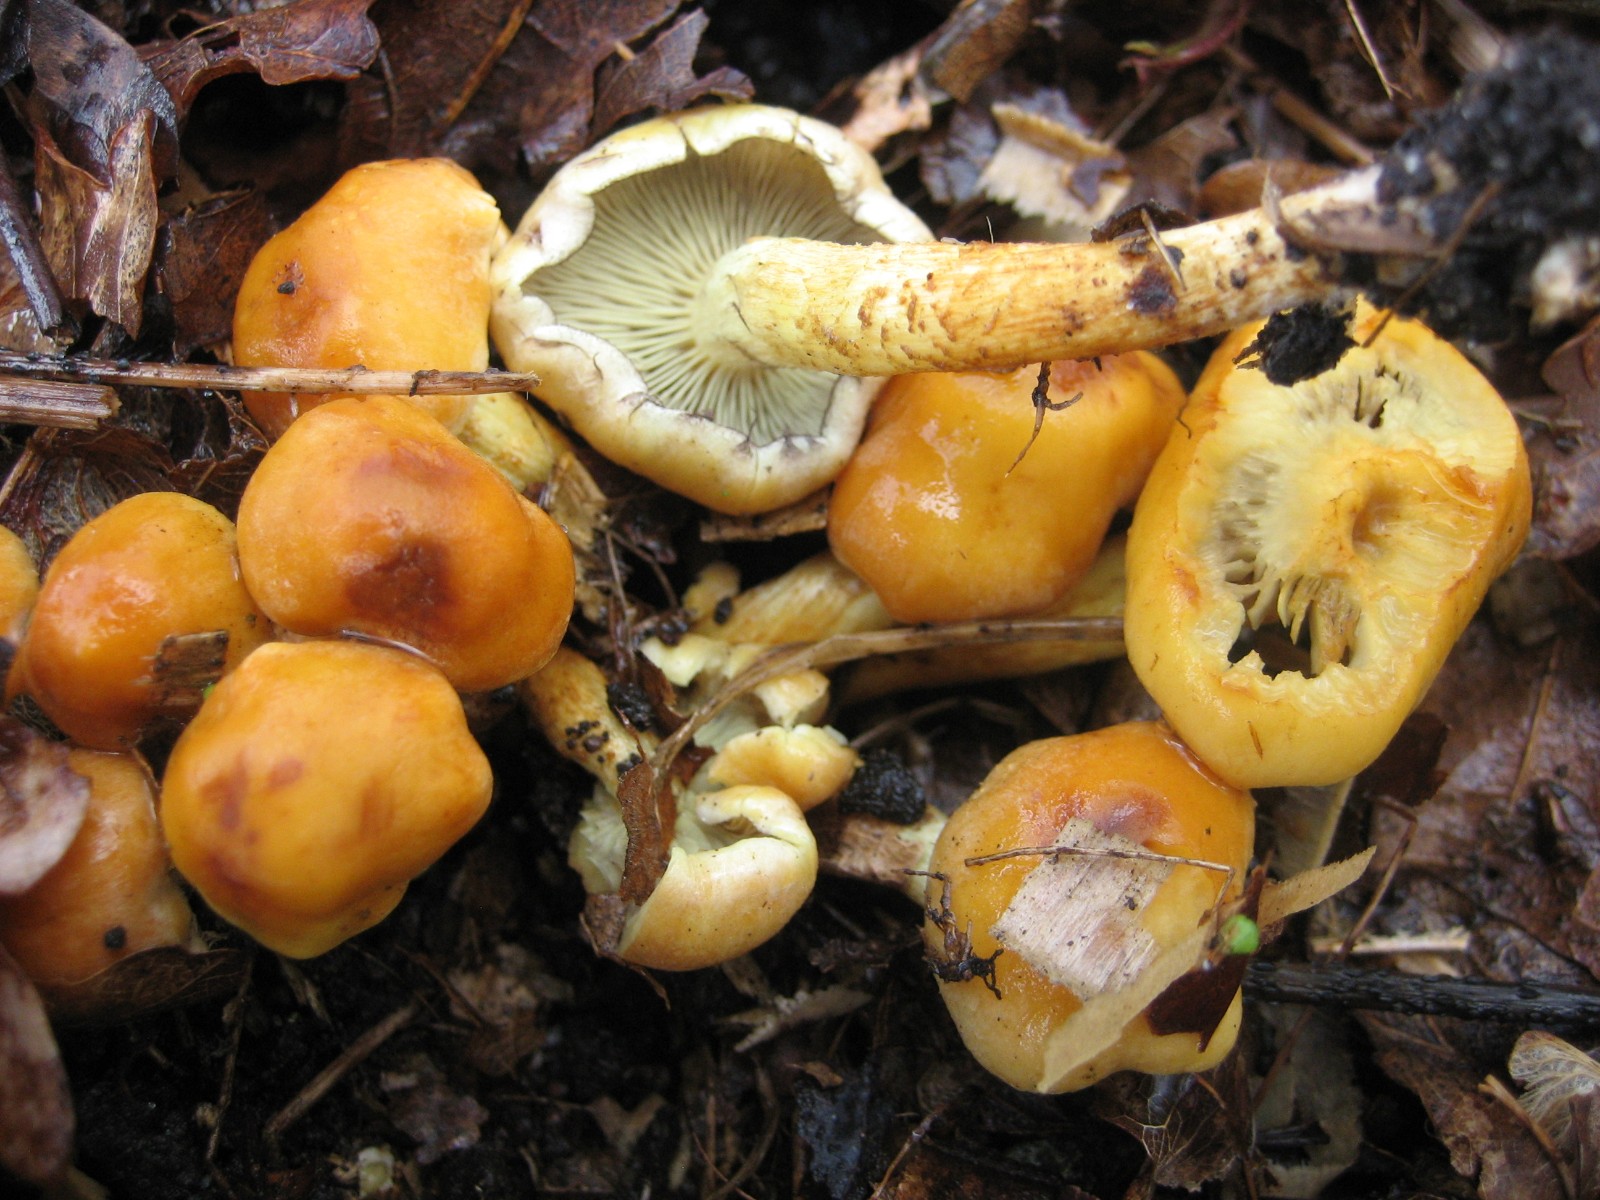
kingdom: Fungi
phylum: Basidiomycota
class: Agaricomycetes
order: Agaricales
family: Strophariaceae
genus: Hypholoma
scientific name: Hypholoma fasciculare
